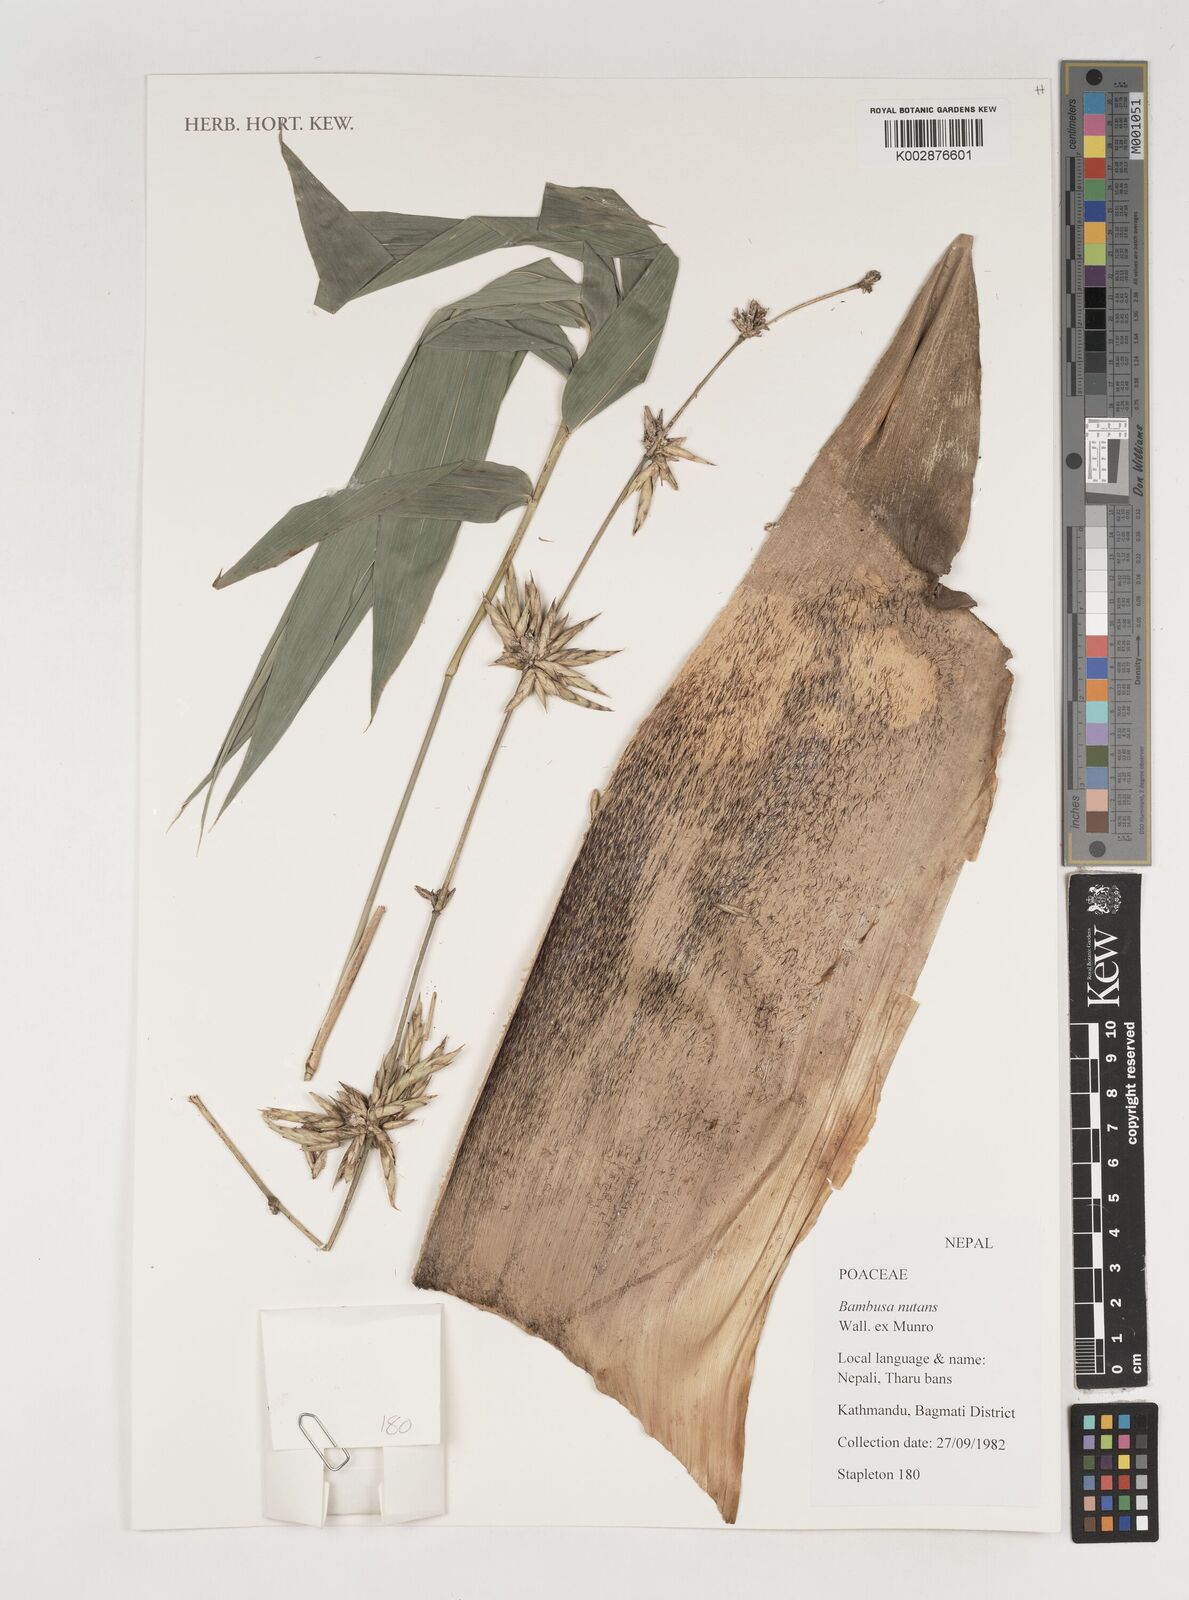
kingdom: Plantae
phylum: Tracheophyta
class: Liliopsida
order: Poales
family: Poaceae
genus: Bambusa
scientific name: Bambusa nutans
